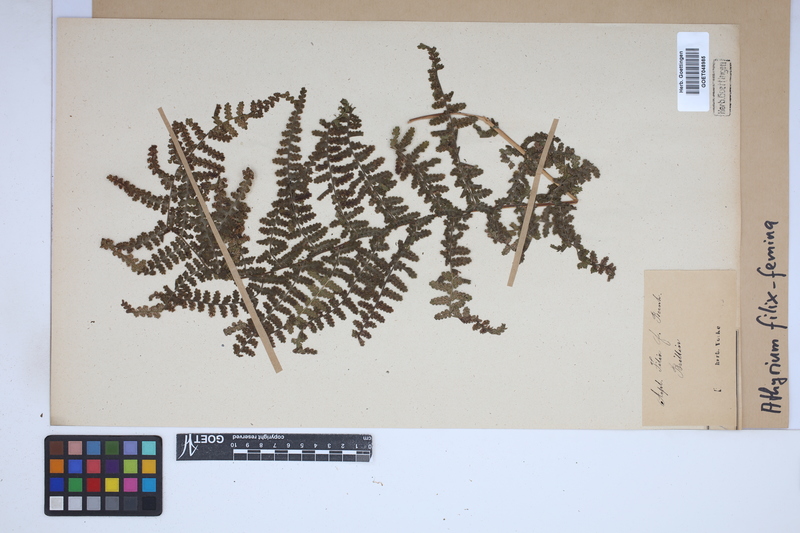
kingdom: Plantae
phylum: Tracheophyta
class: Polypodiopsida
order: Polypodiales
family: Athyriaceae
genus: Athyrium
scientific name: Athyrium filix-femina
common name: Lady fern
